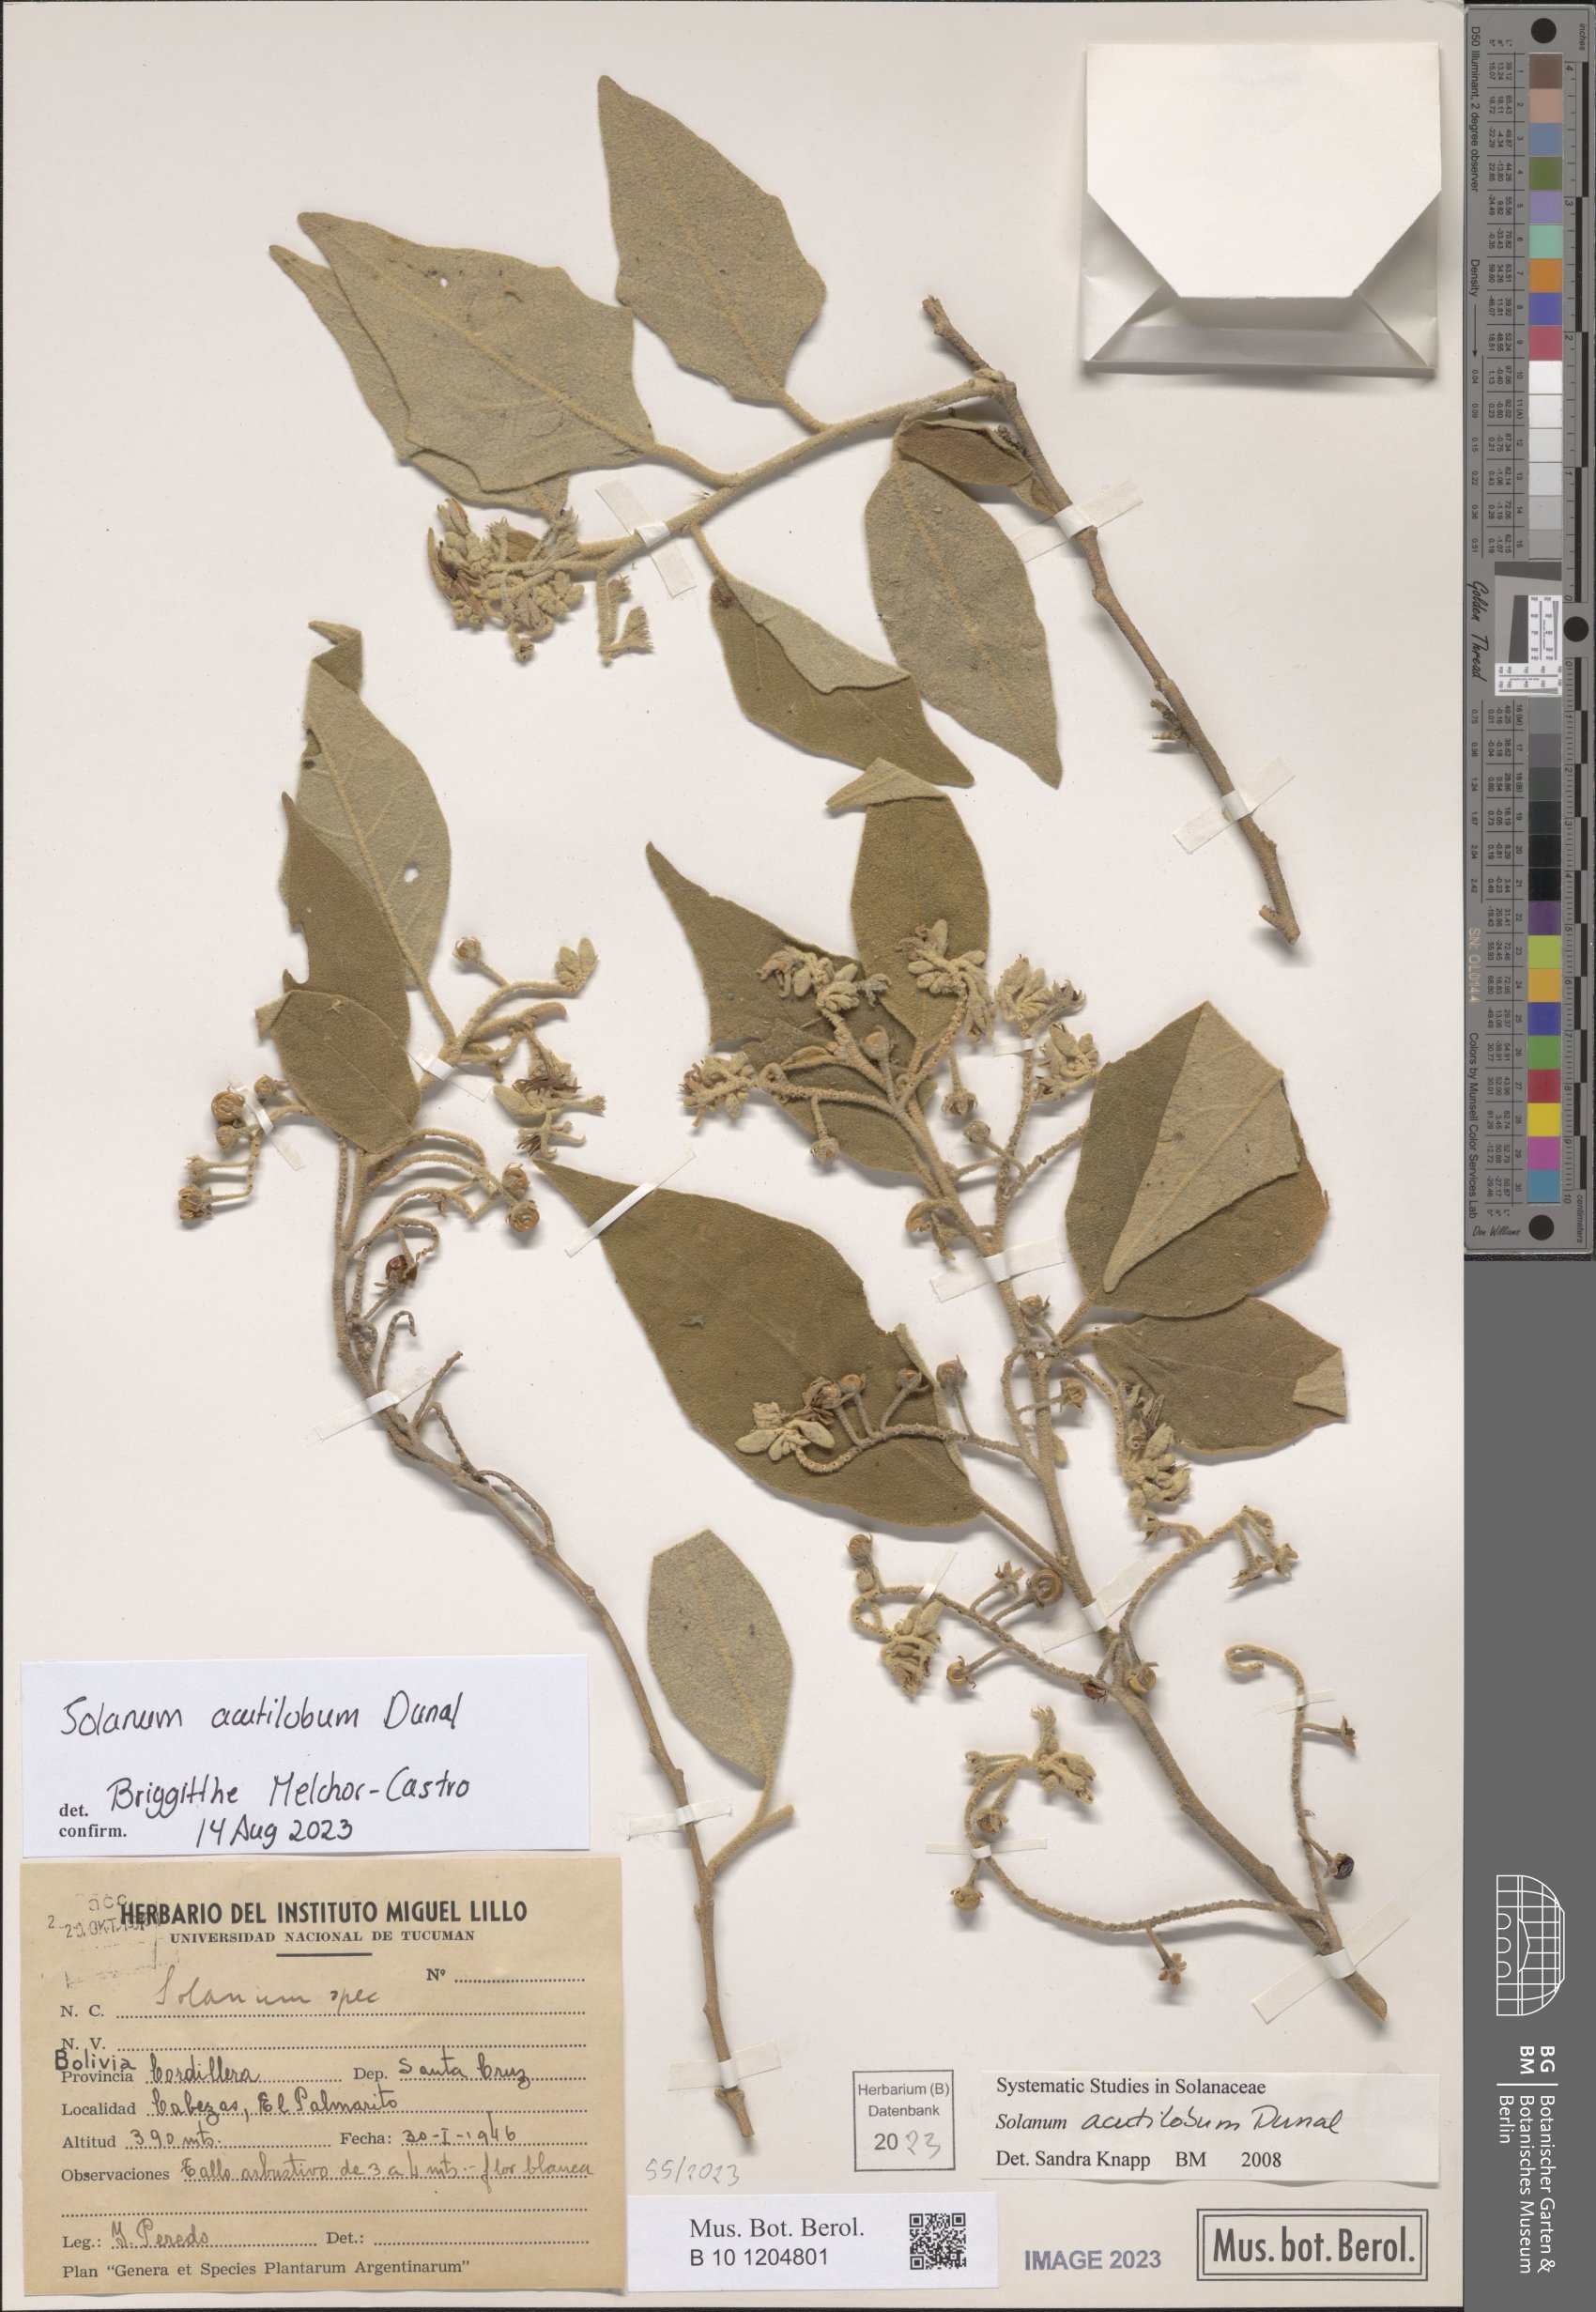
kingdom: Plantae
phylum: Tracheophyta
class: Magnoliopsida
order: Solanales
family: Solanaceae
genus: Solanum
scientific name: Solanum acutilobum
